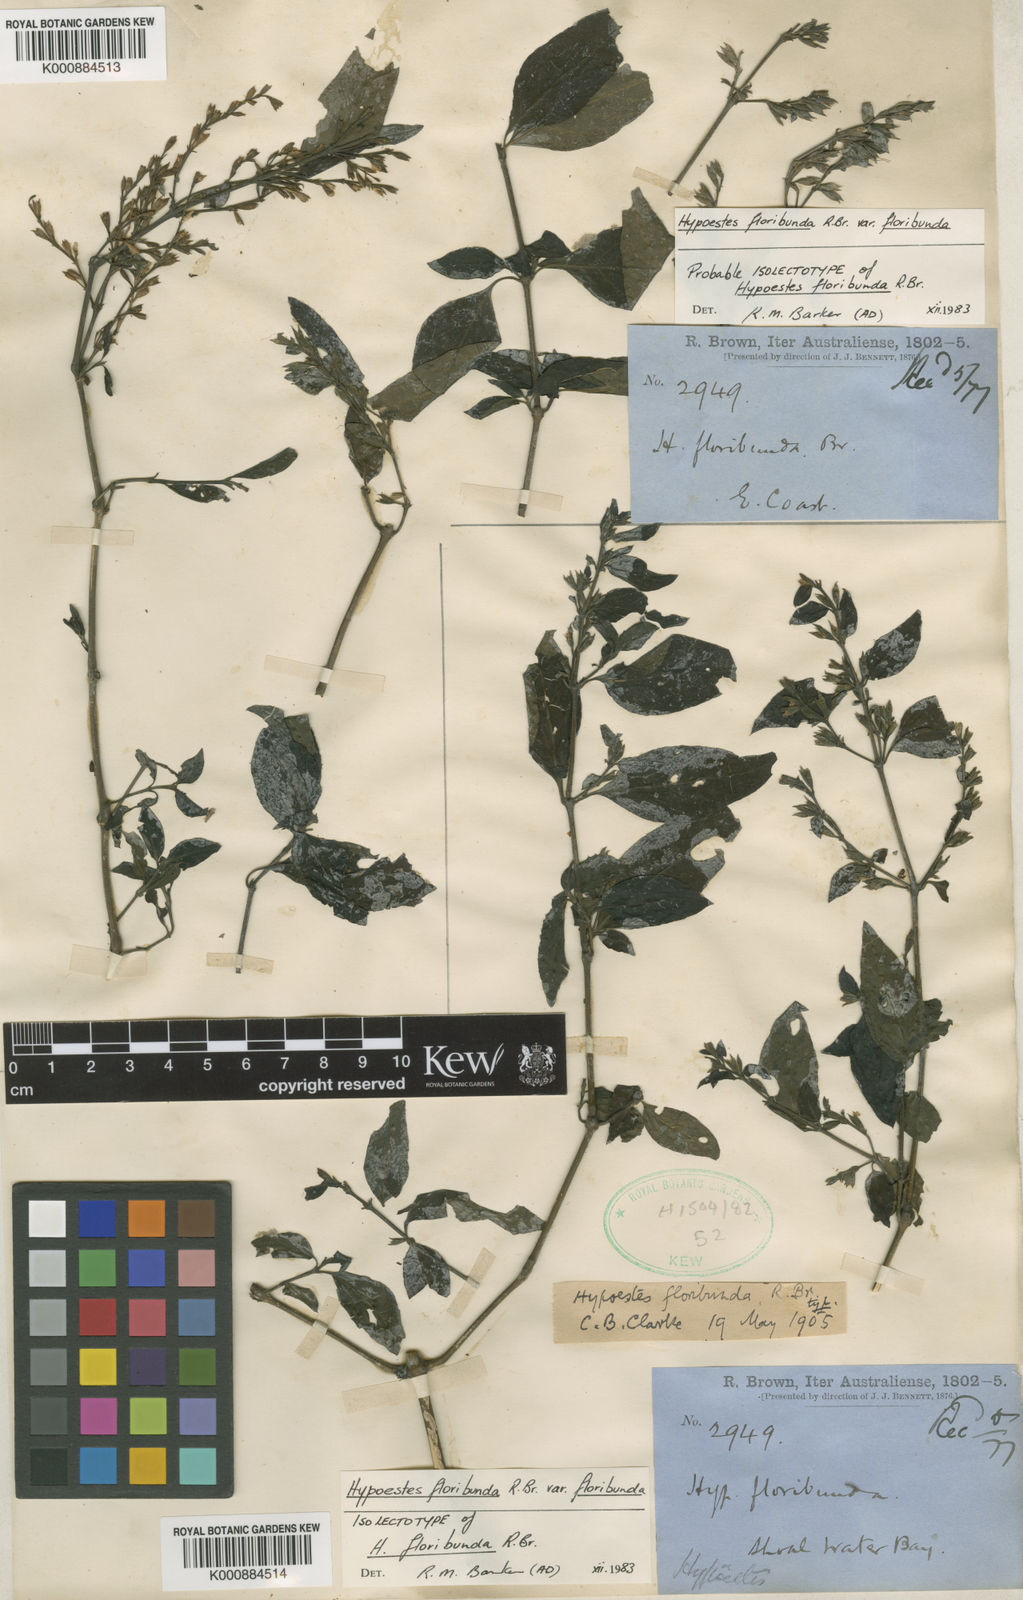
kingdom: Plantae
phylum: Tracheophyta
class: Magnoliopsida
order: Lamiales
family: Acanthaceae
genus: Hypoestes
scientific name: Hypoestes floribunda
